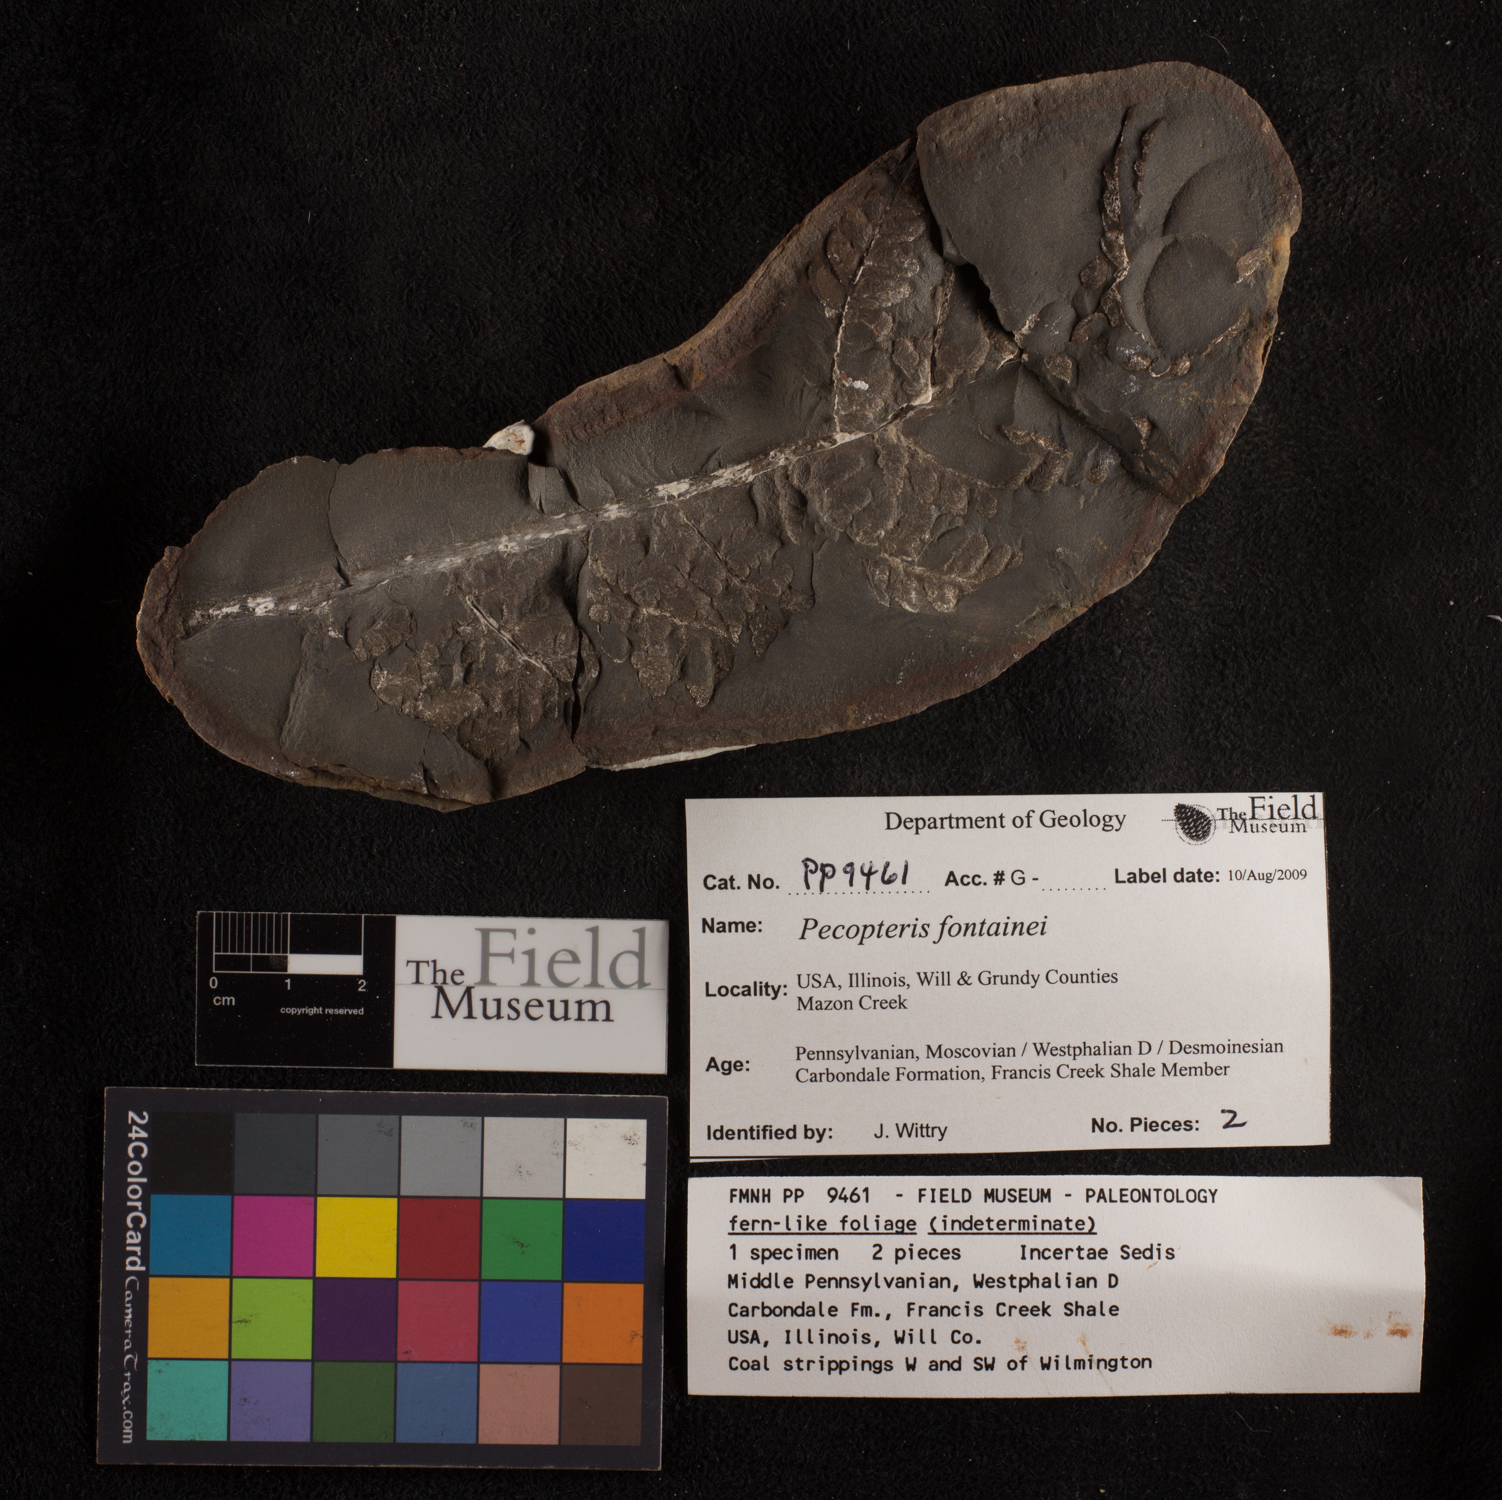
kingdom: Plantae
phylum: Tracheophyta
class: Polypodiopsida
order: Marattiales
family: Asterothecaceae
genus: Pecopteris
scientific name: Pecopteris
